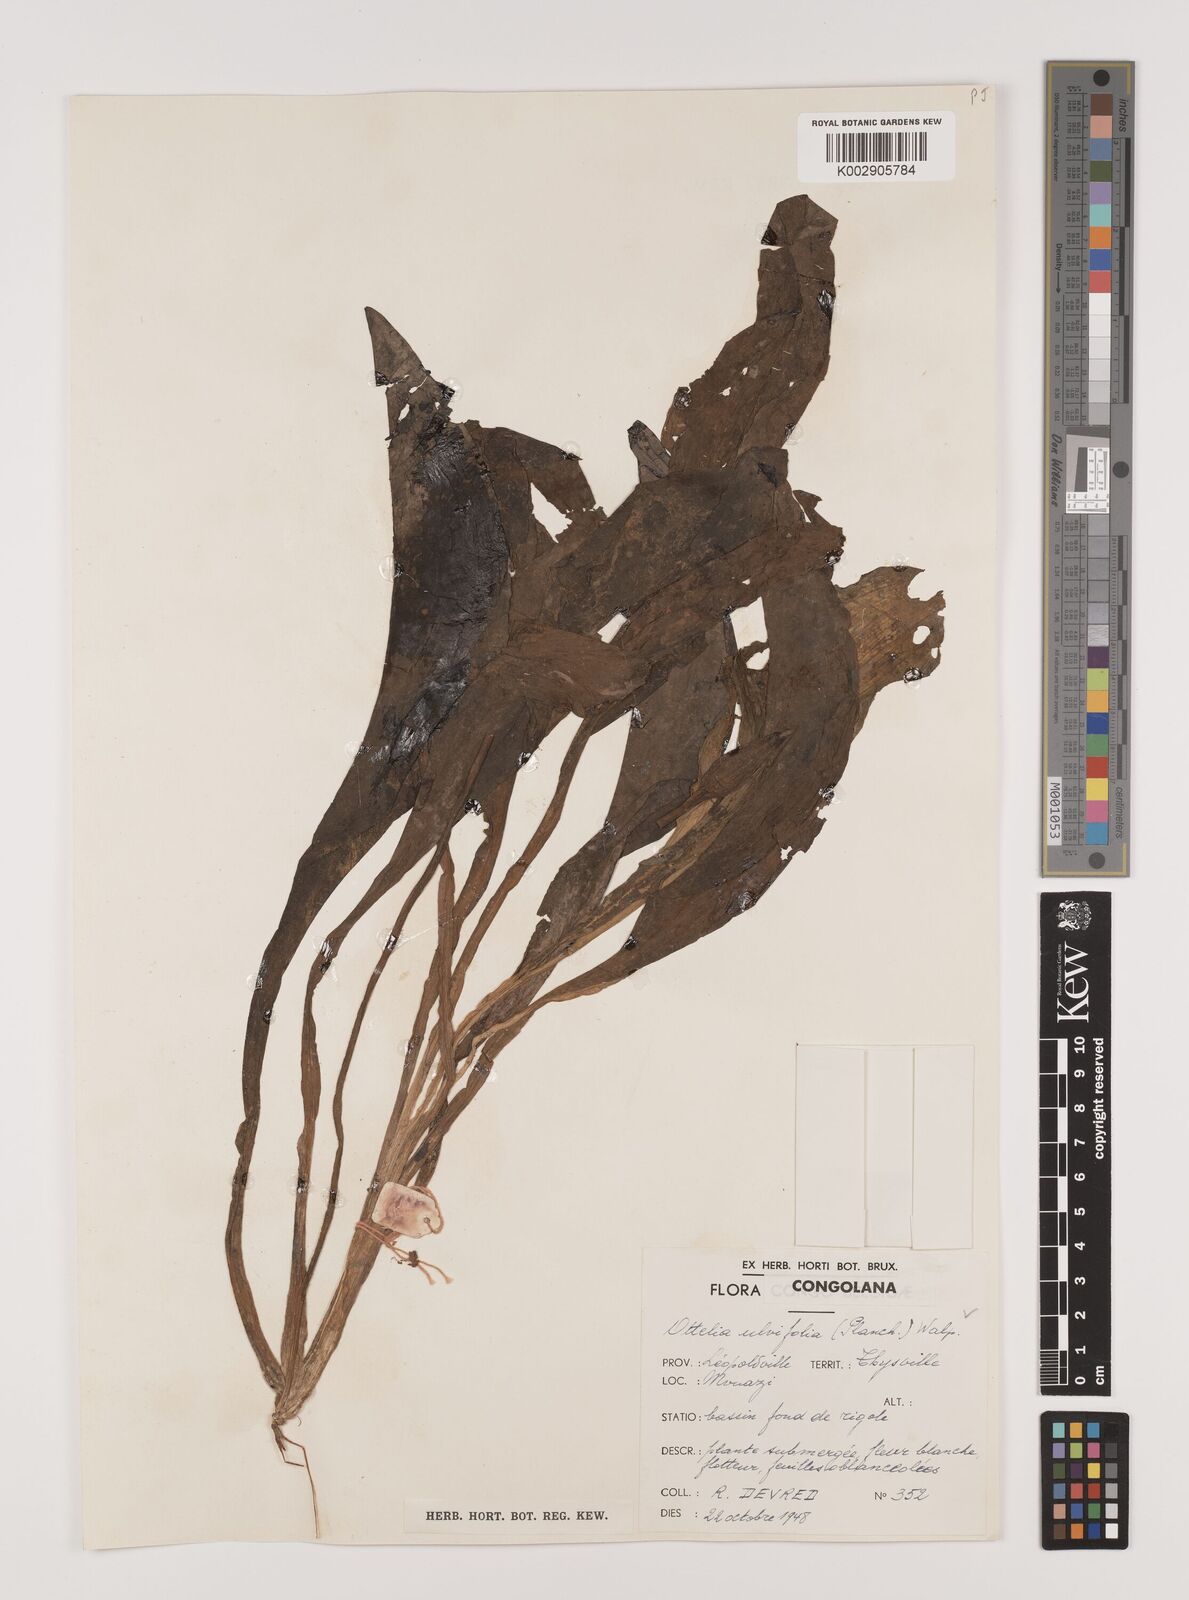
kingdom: Plantae
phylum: Tracheophyta
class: Liliopsida
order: Alismatales
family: Hydrocharitaceae
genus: Ottelia
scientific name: Ottelia ulvifolia
